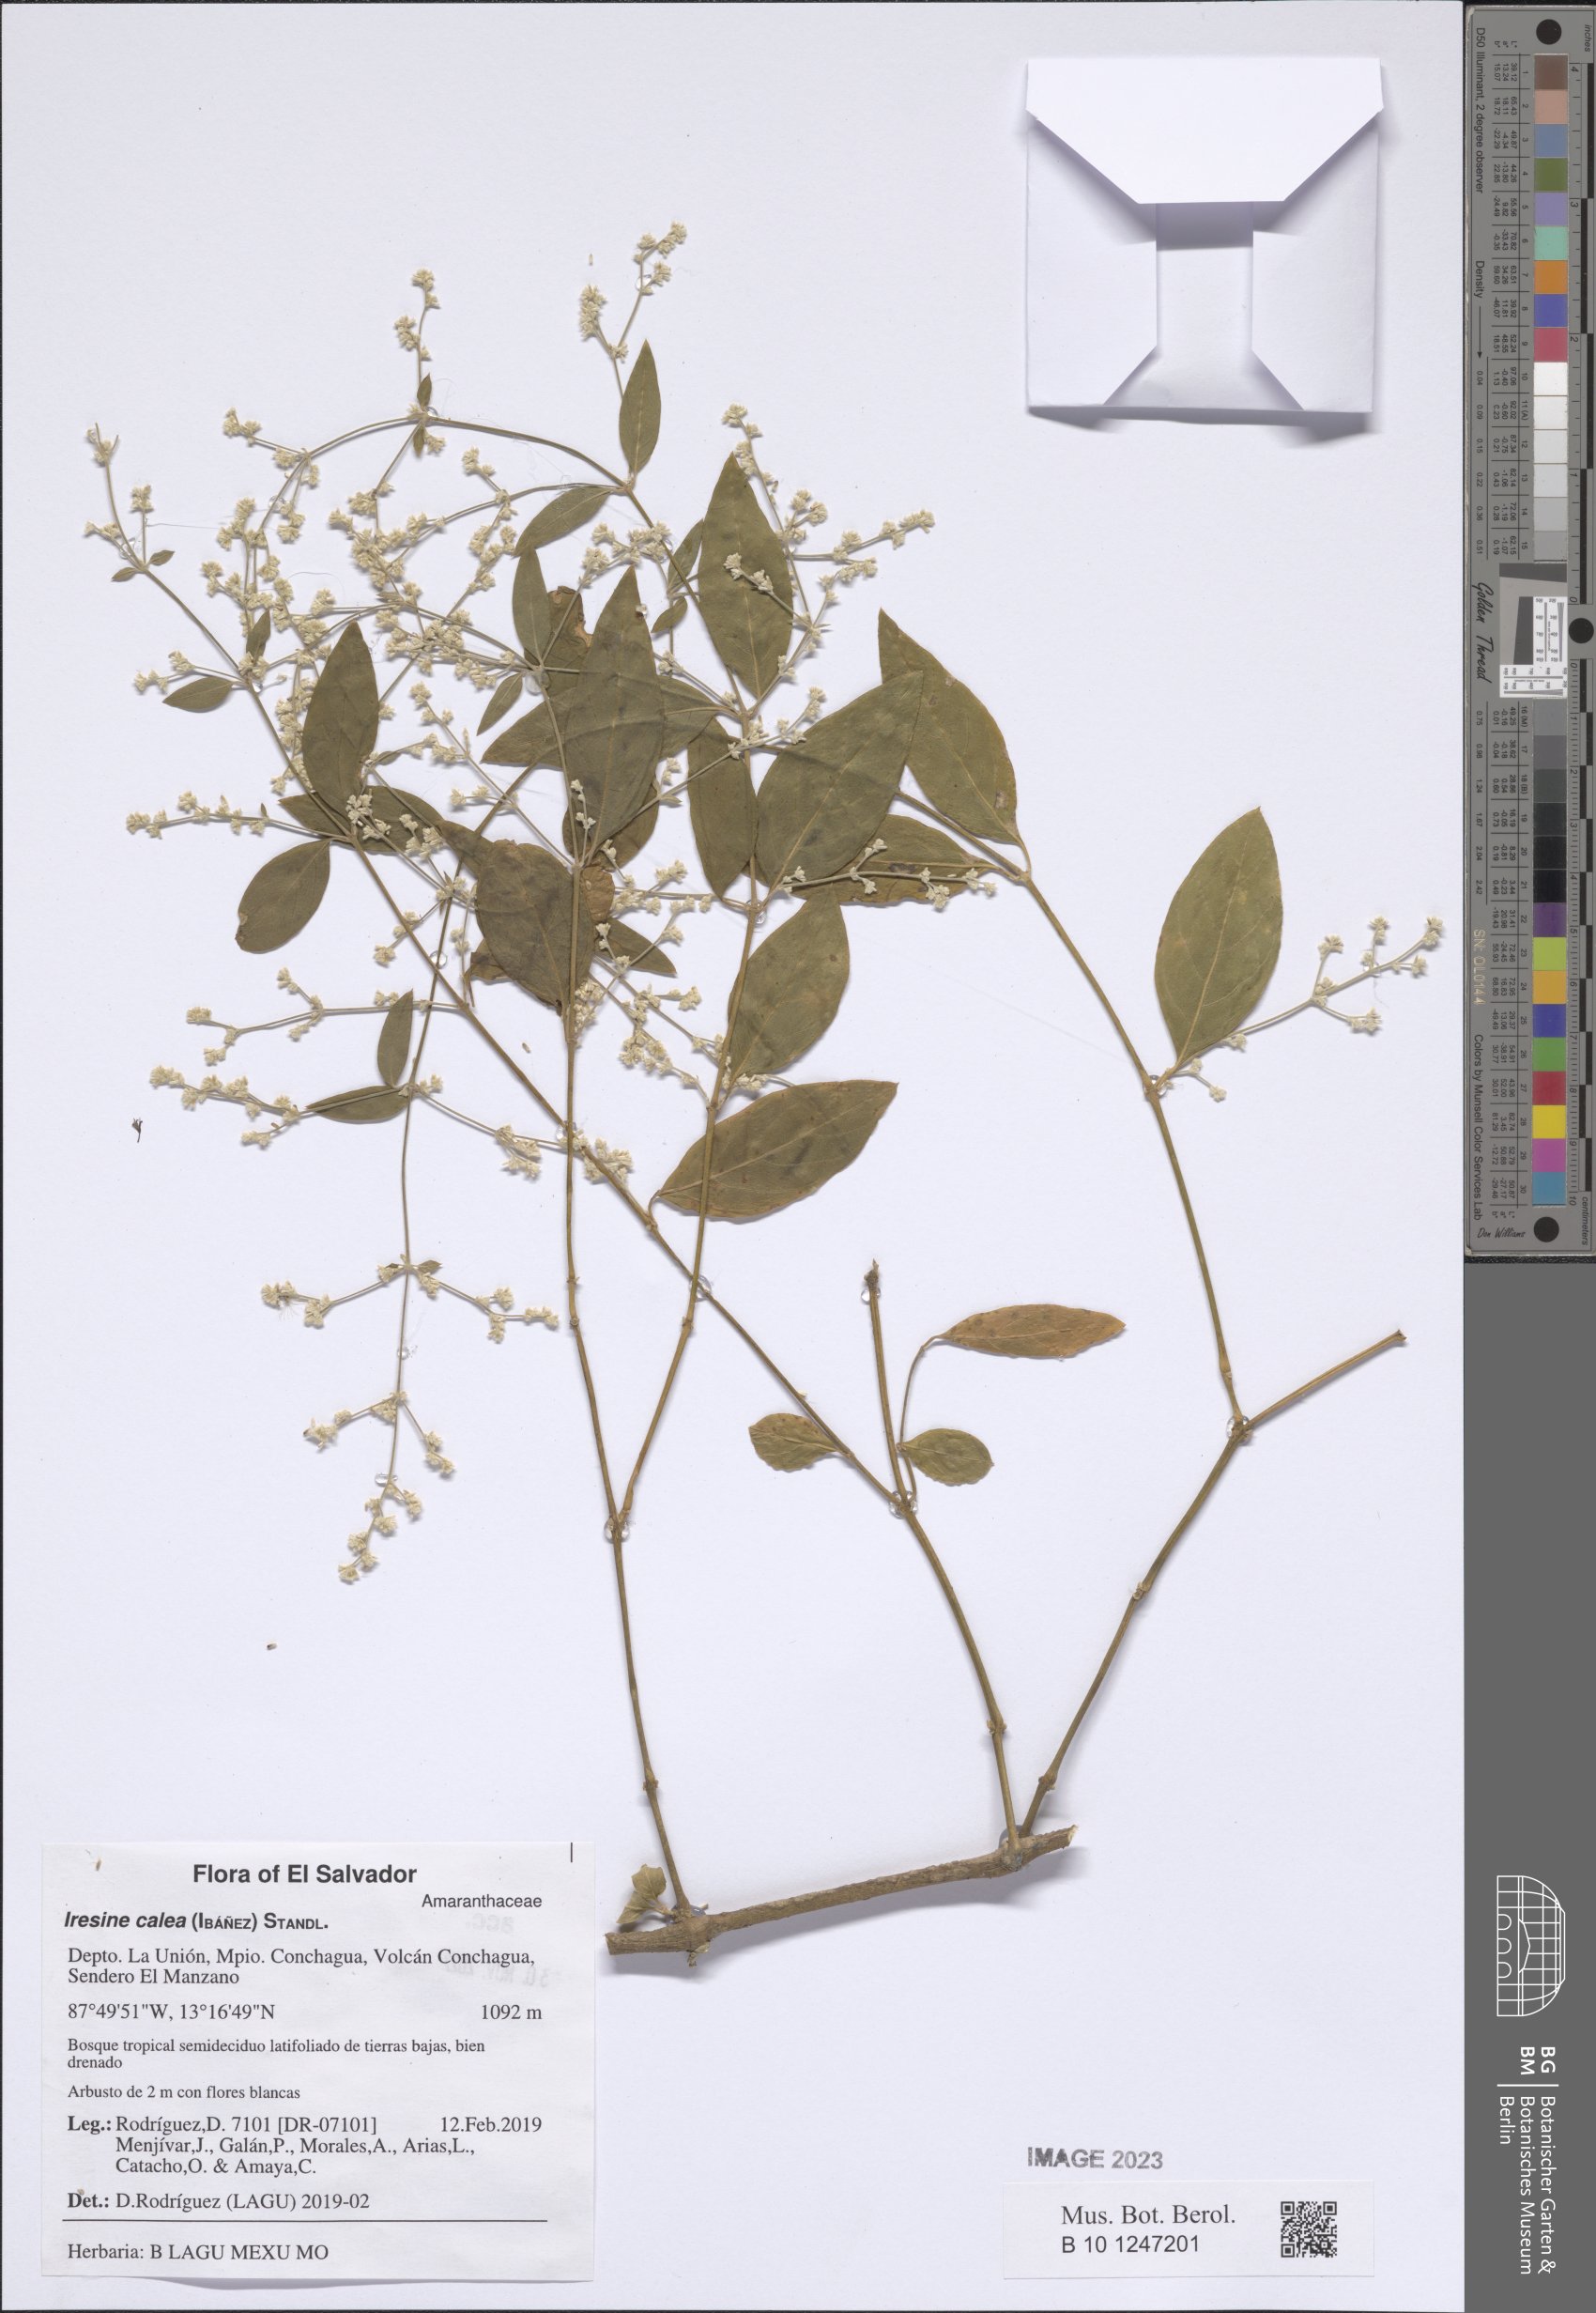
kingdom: Plantae
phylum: Tracheophyta
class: Magnoliopsida
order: Caryophyllales
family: Amaranthaceae
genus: Iresine
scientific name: Iresine latifolia
